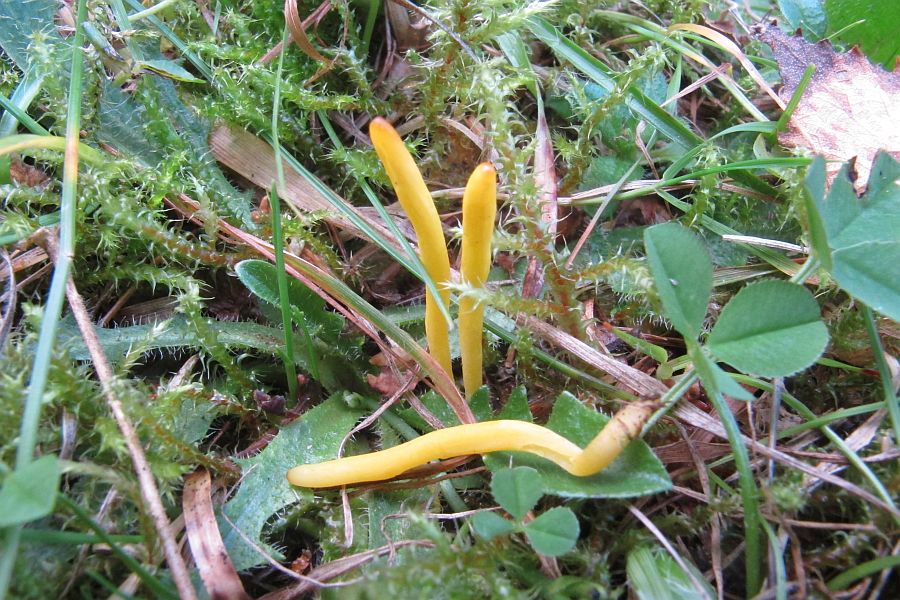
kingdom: Fungi
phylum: Basidiomycota
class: Agaricomycetes
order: Agaricales
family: Clavariaceae
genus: Clavulinopsis
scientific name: Clavulinopsis helvola
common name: orangegul køllesvamp
